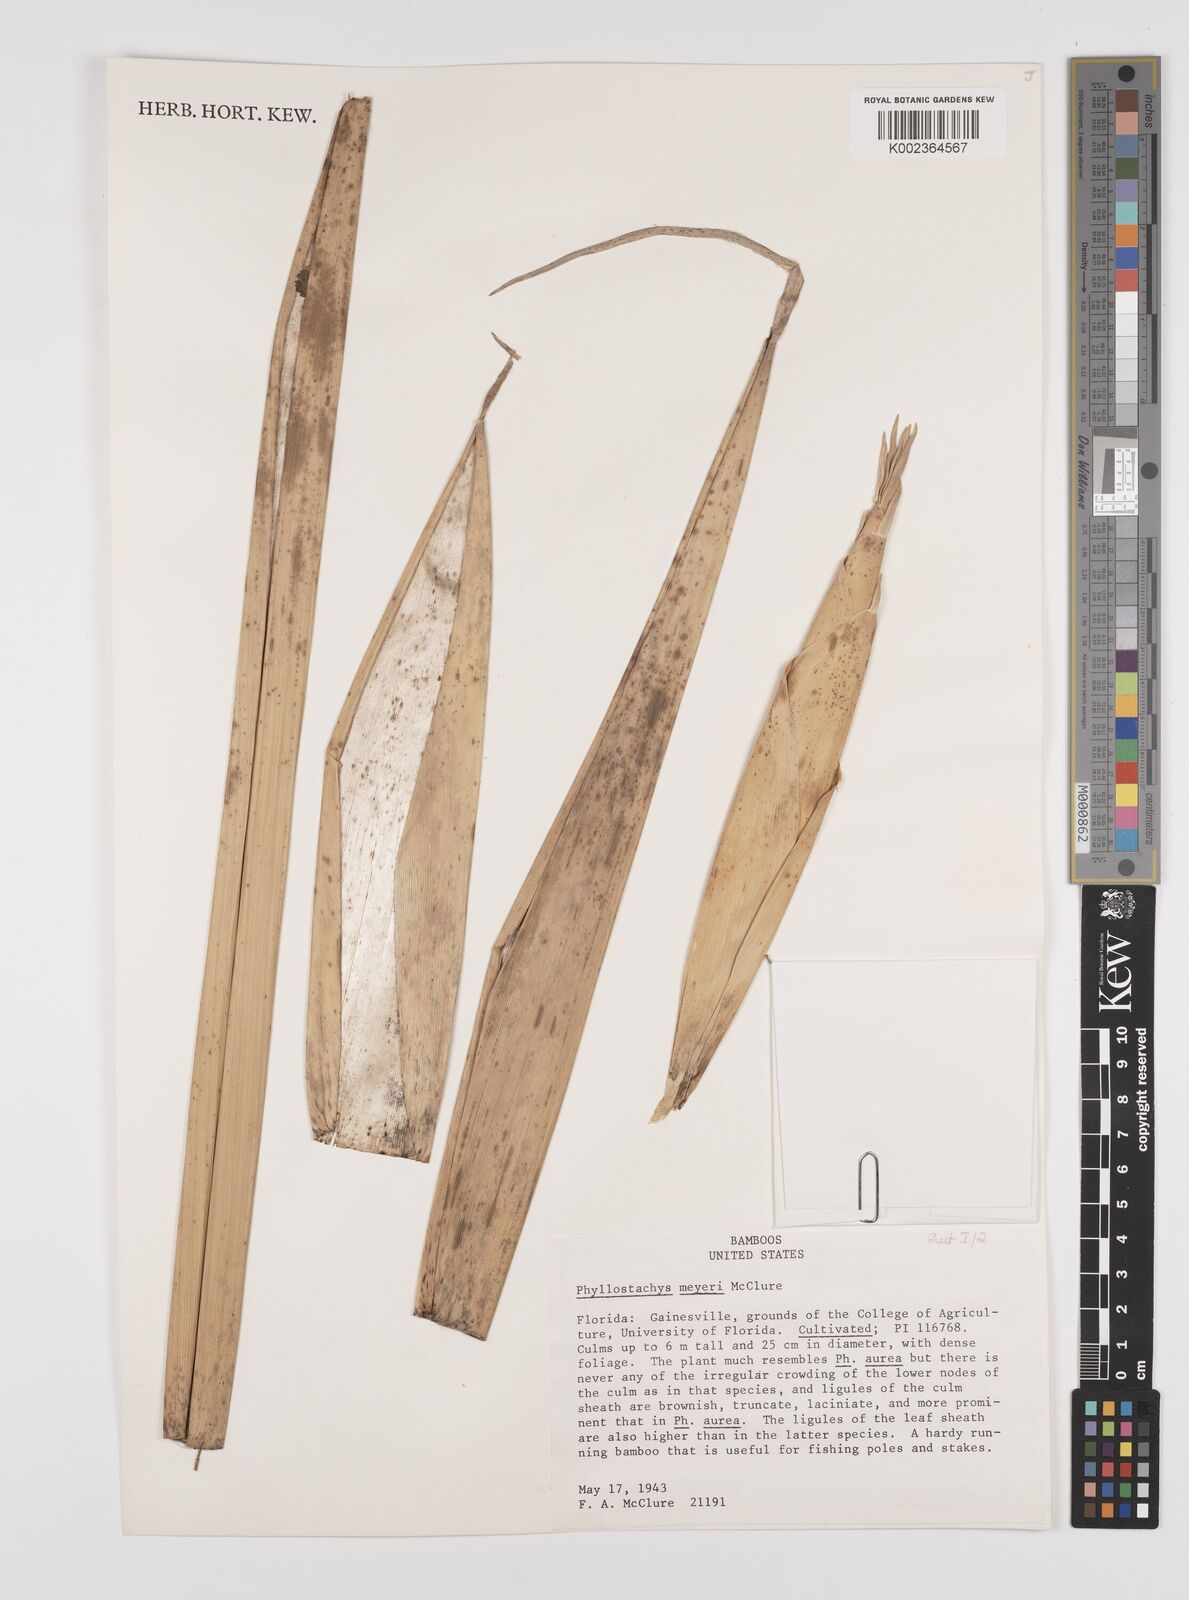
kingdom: Plantae
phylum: Tracheophyta
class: Liliopsida
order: Poales
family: Poaceae
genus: Phyllostachys
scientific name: Phyllostachys meyeri
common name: Meyer's bamboo
